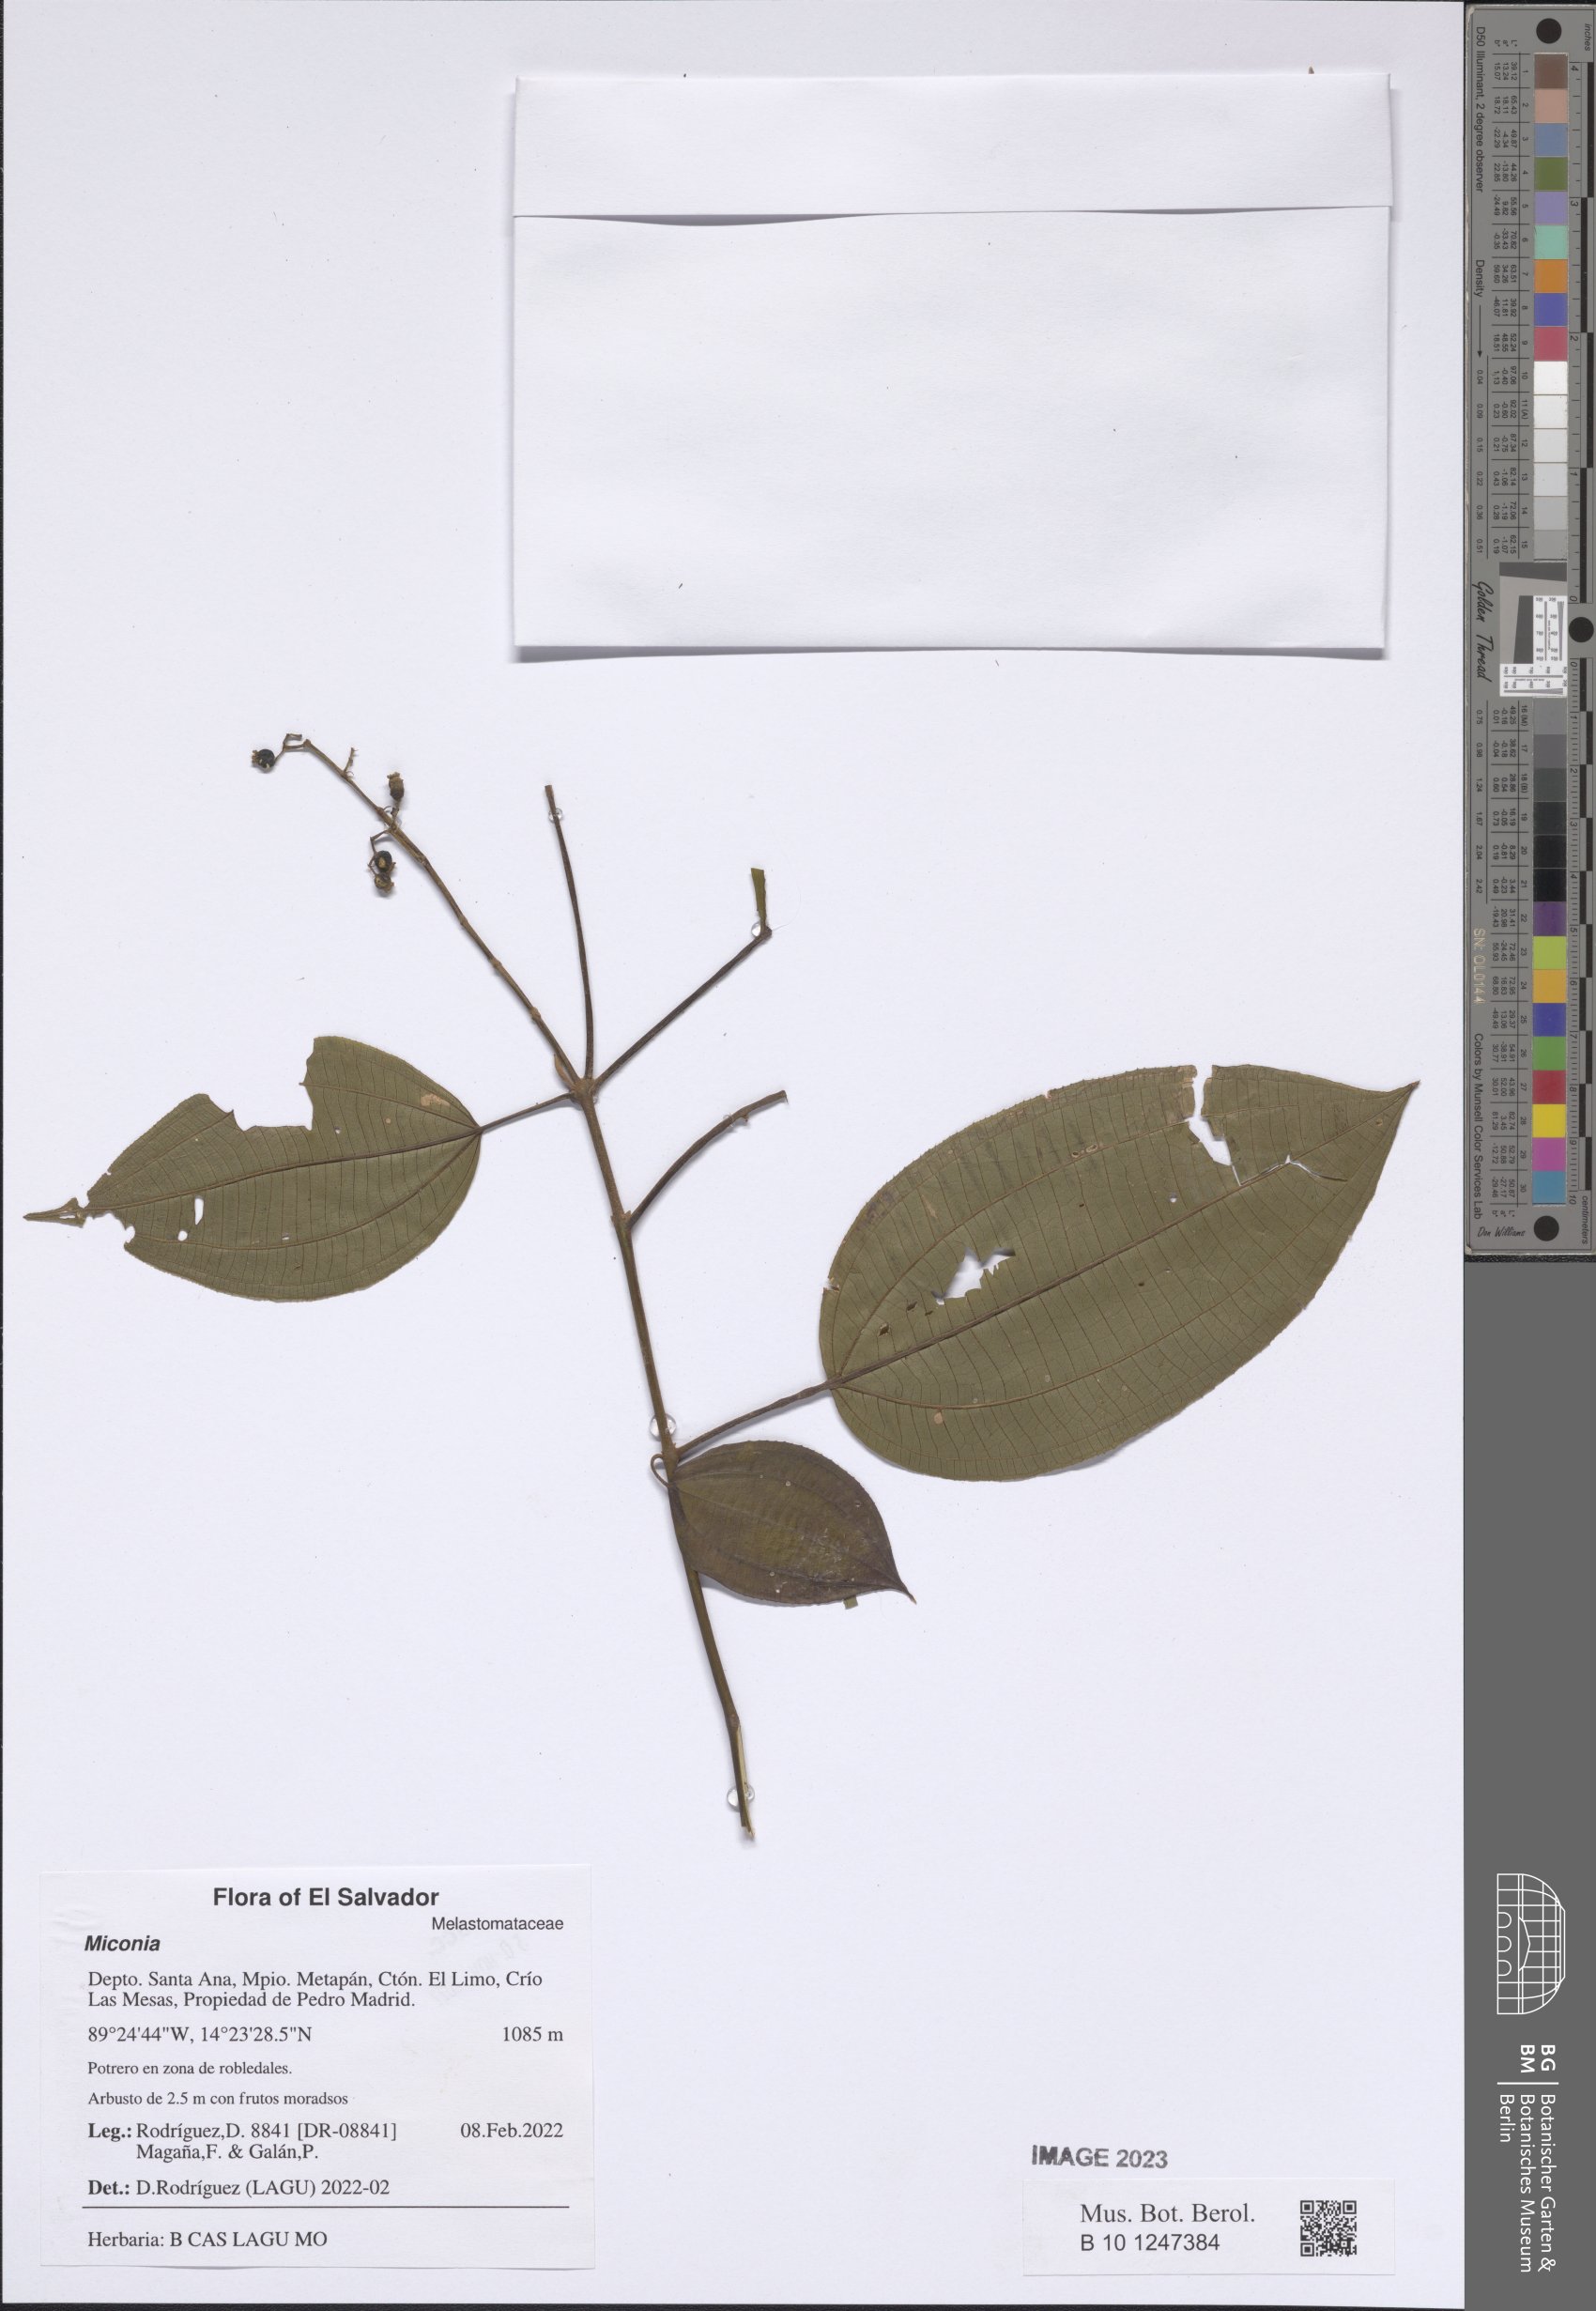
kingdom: Plantae
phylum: Tracheophyta
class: Magnoliopsida
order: Myrtales
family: Melastomataceae
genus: Miconia
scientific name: Miconia
